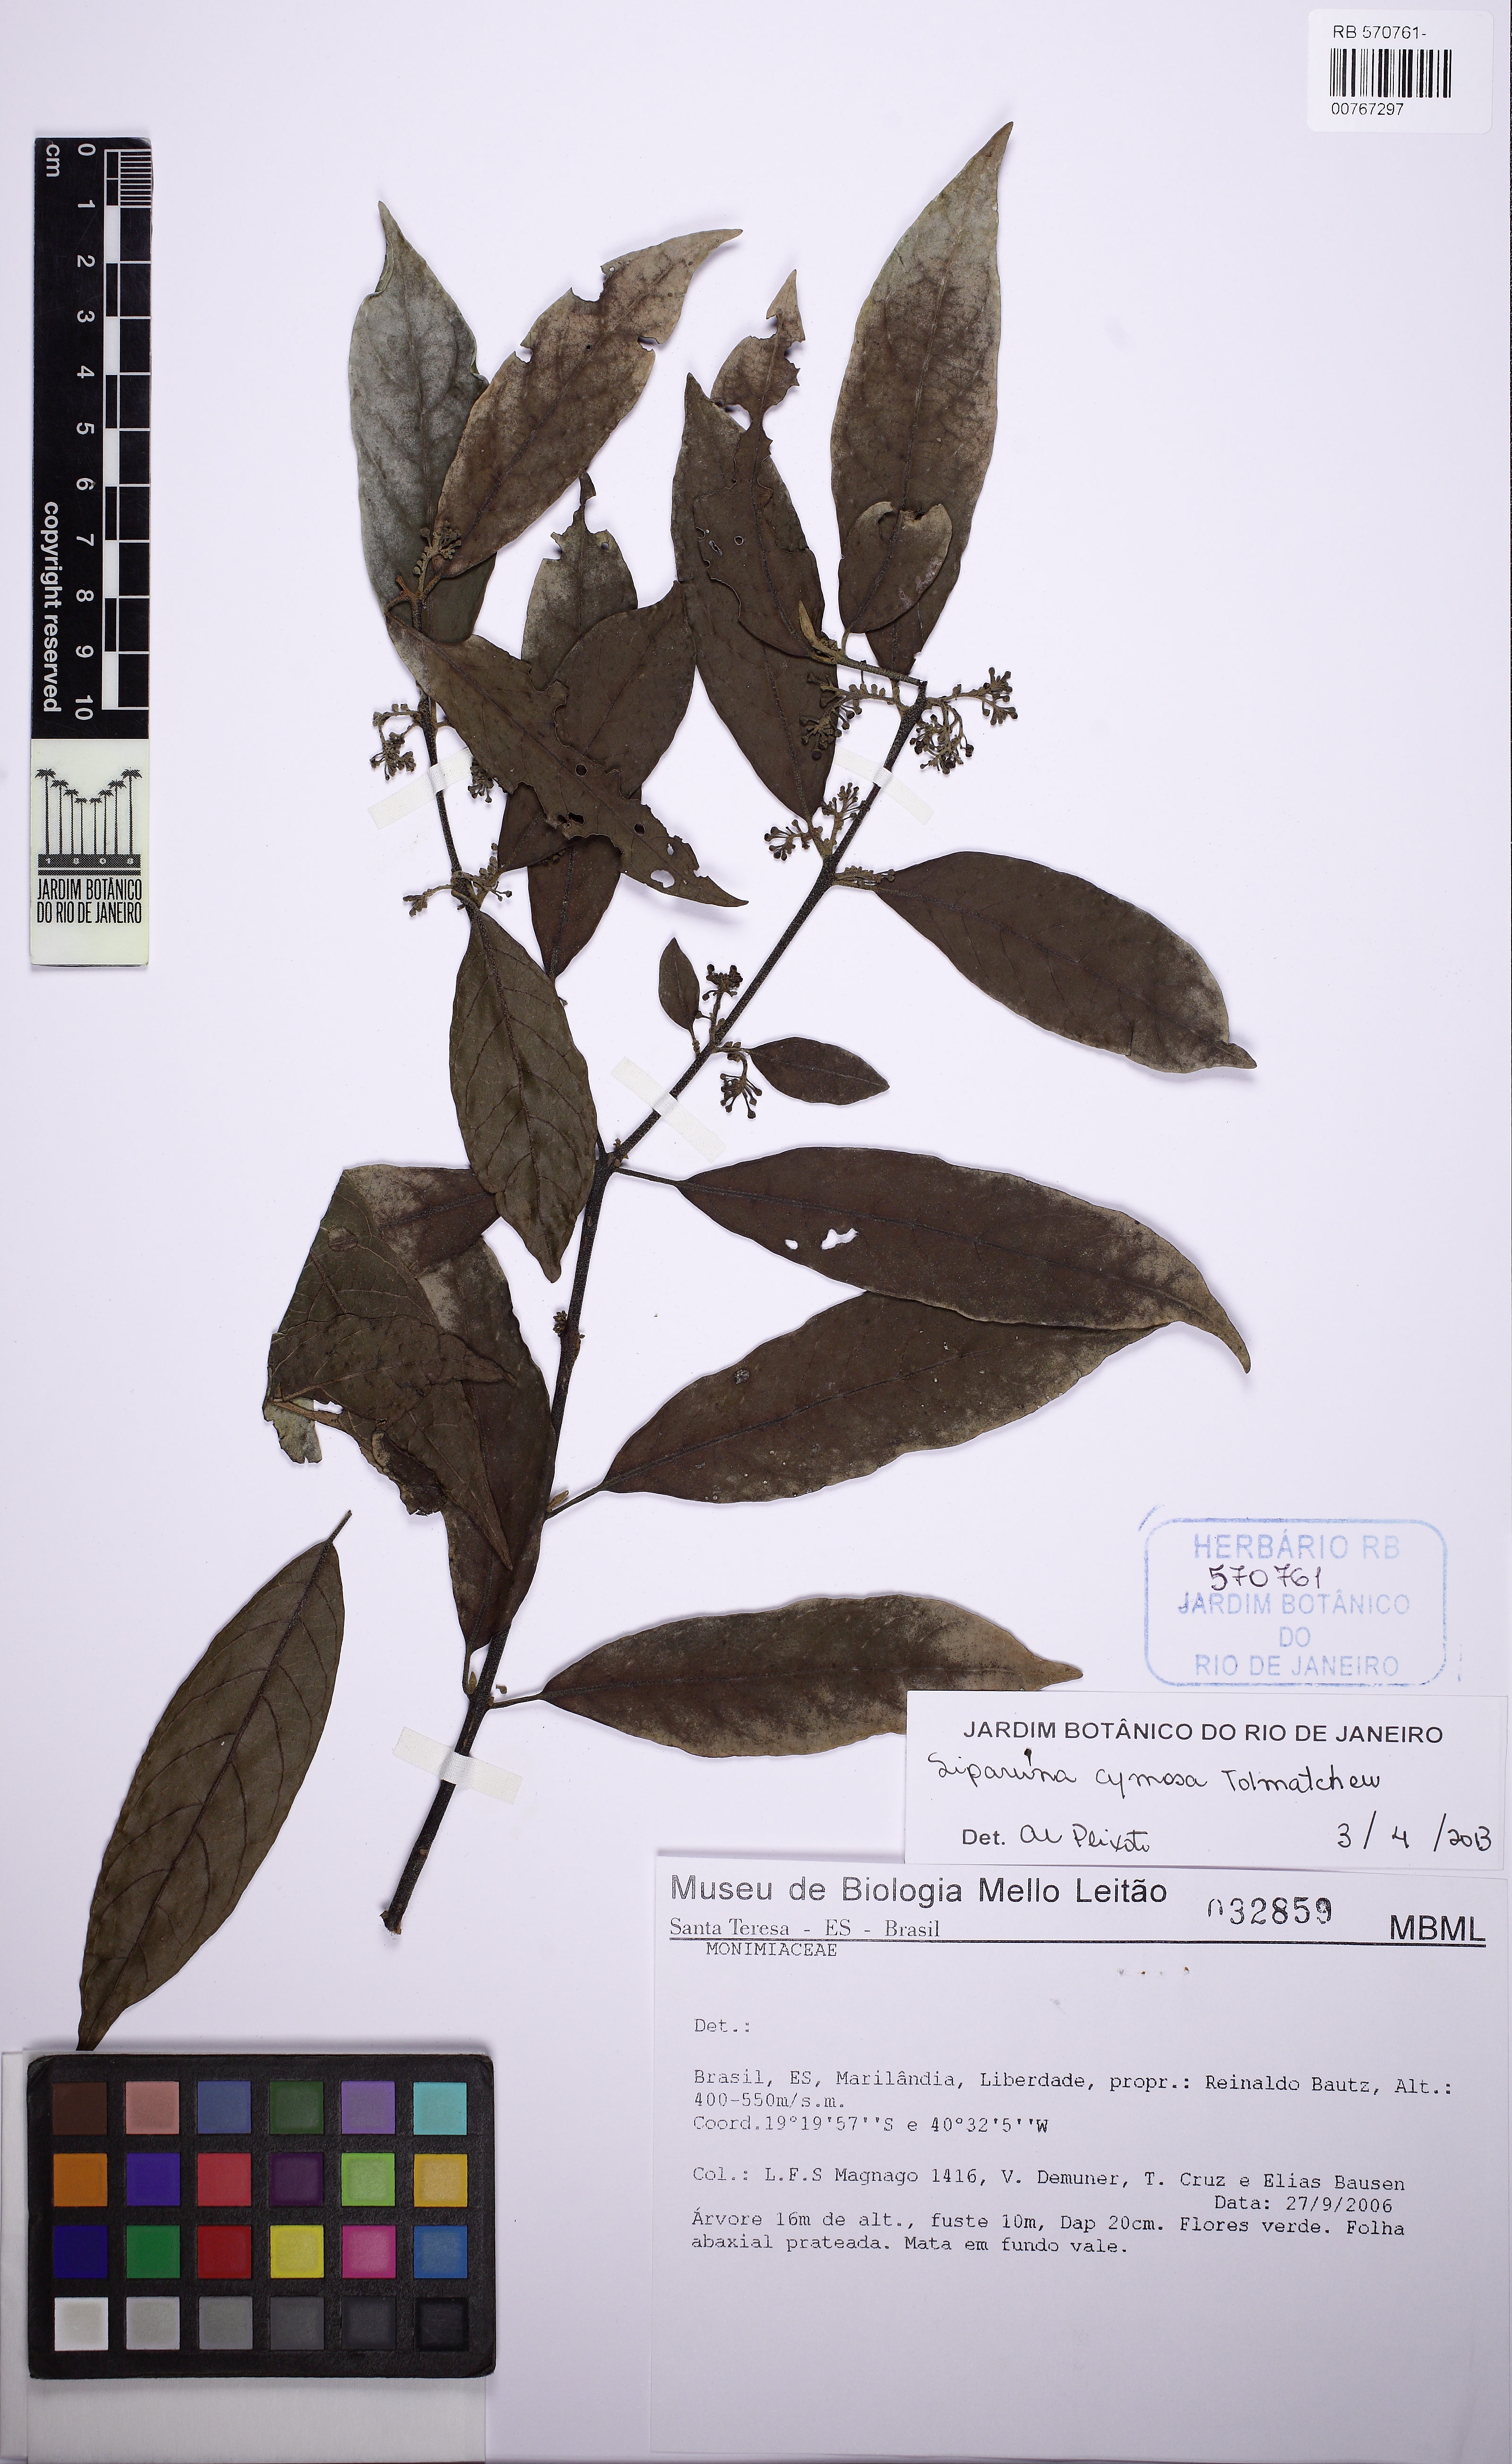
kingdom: Plantae
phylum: Tracheophyta
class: Magnoliopsida
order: Laurales
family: Siparunaceae
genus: Siparuna
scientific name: Siparuna cymosa
